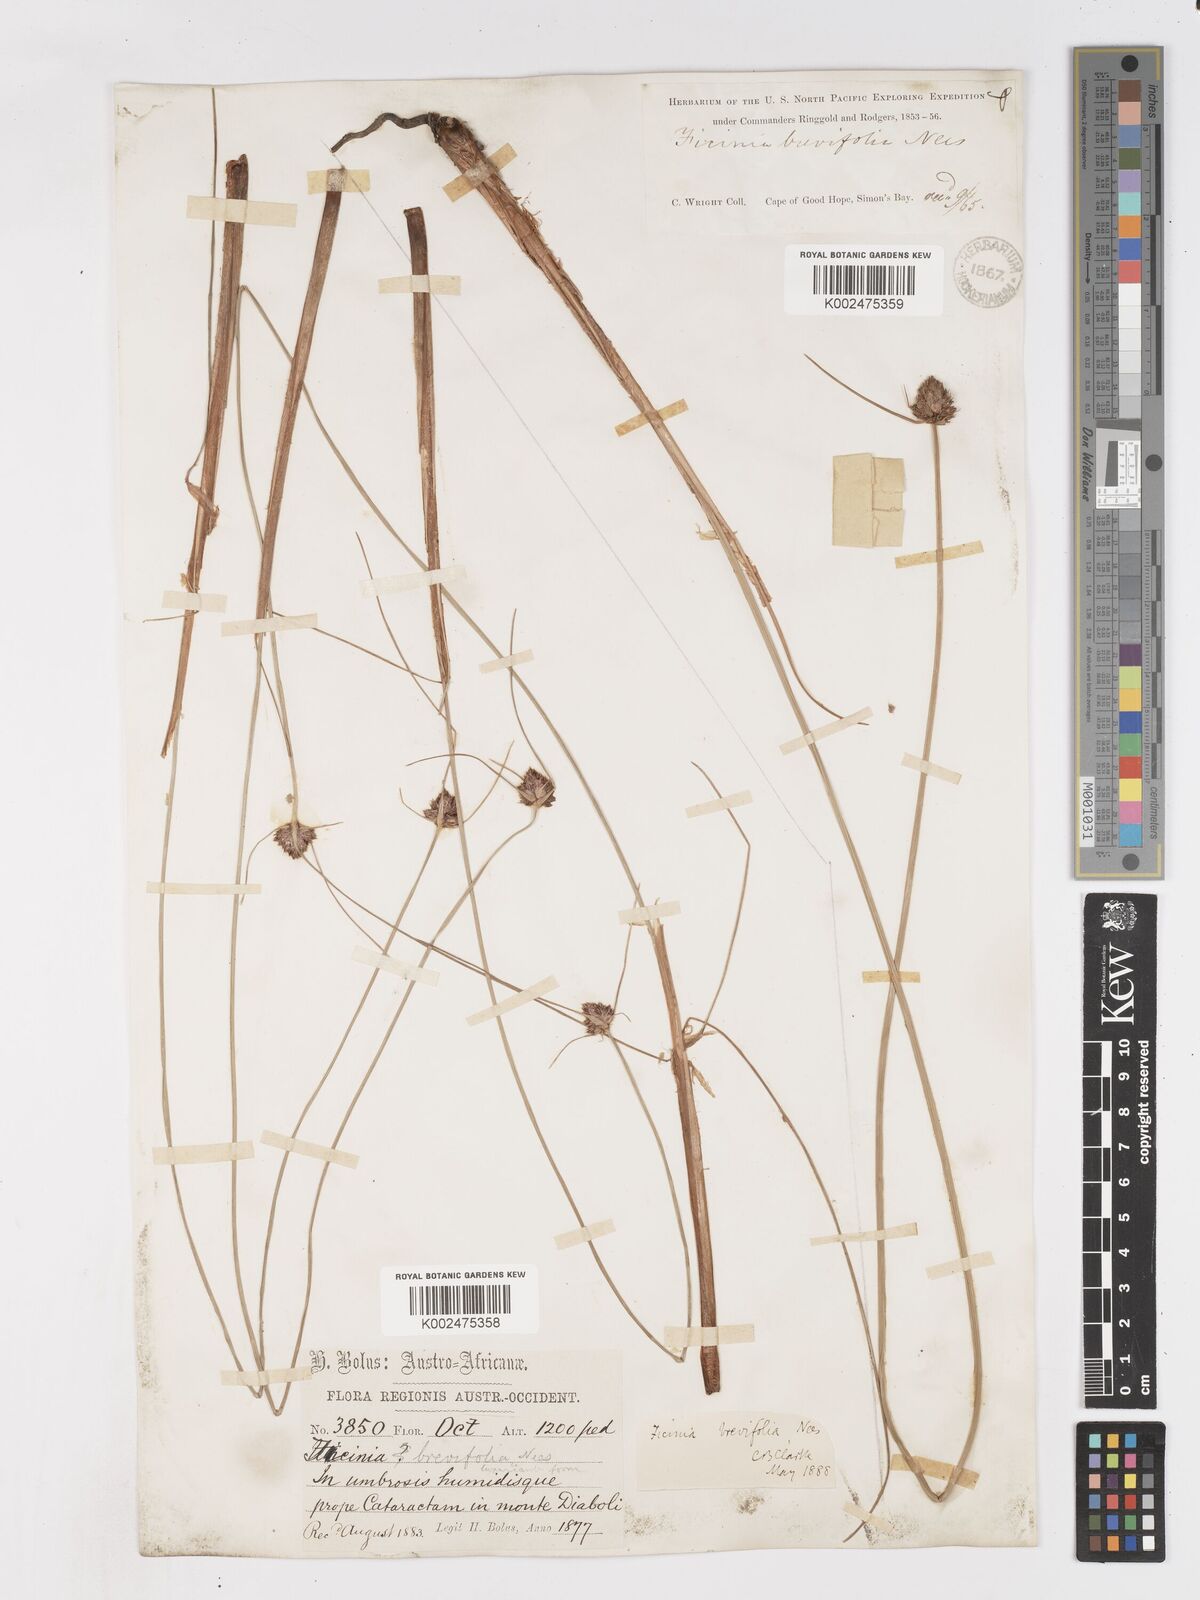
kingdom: Plantae
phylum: Tracheophyta
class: Liliopsida
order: Poales
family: Cyperaceae
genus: Ficinia
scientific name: Ficinia brevifolia
